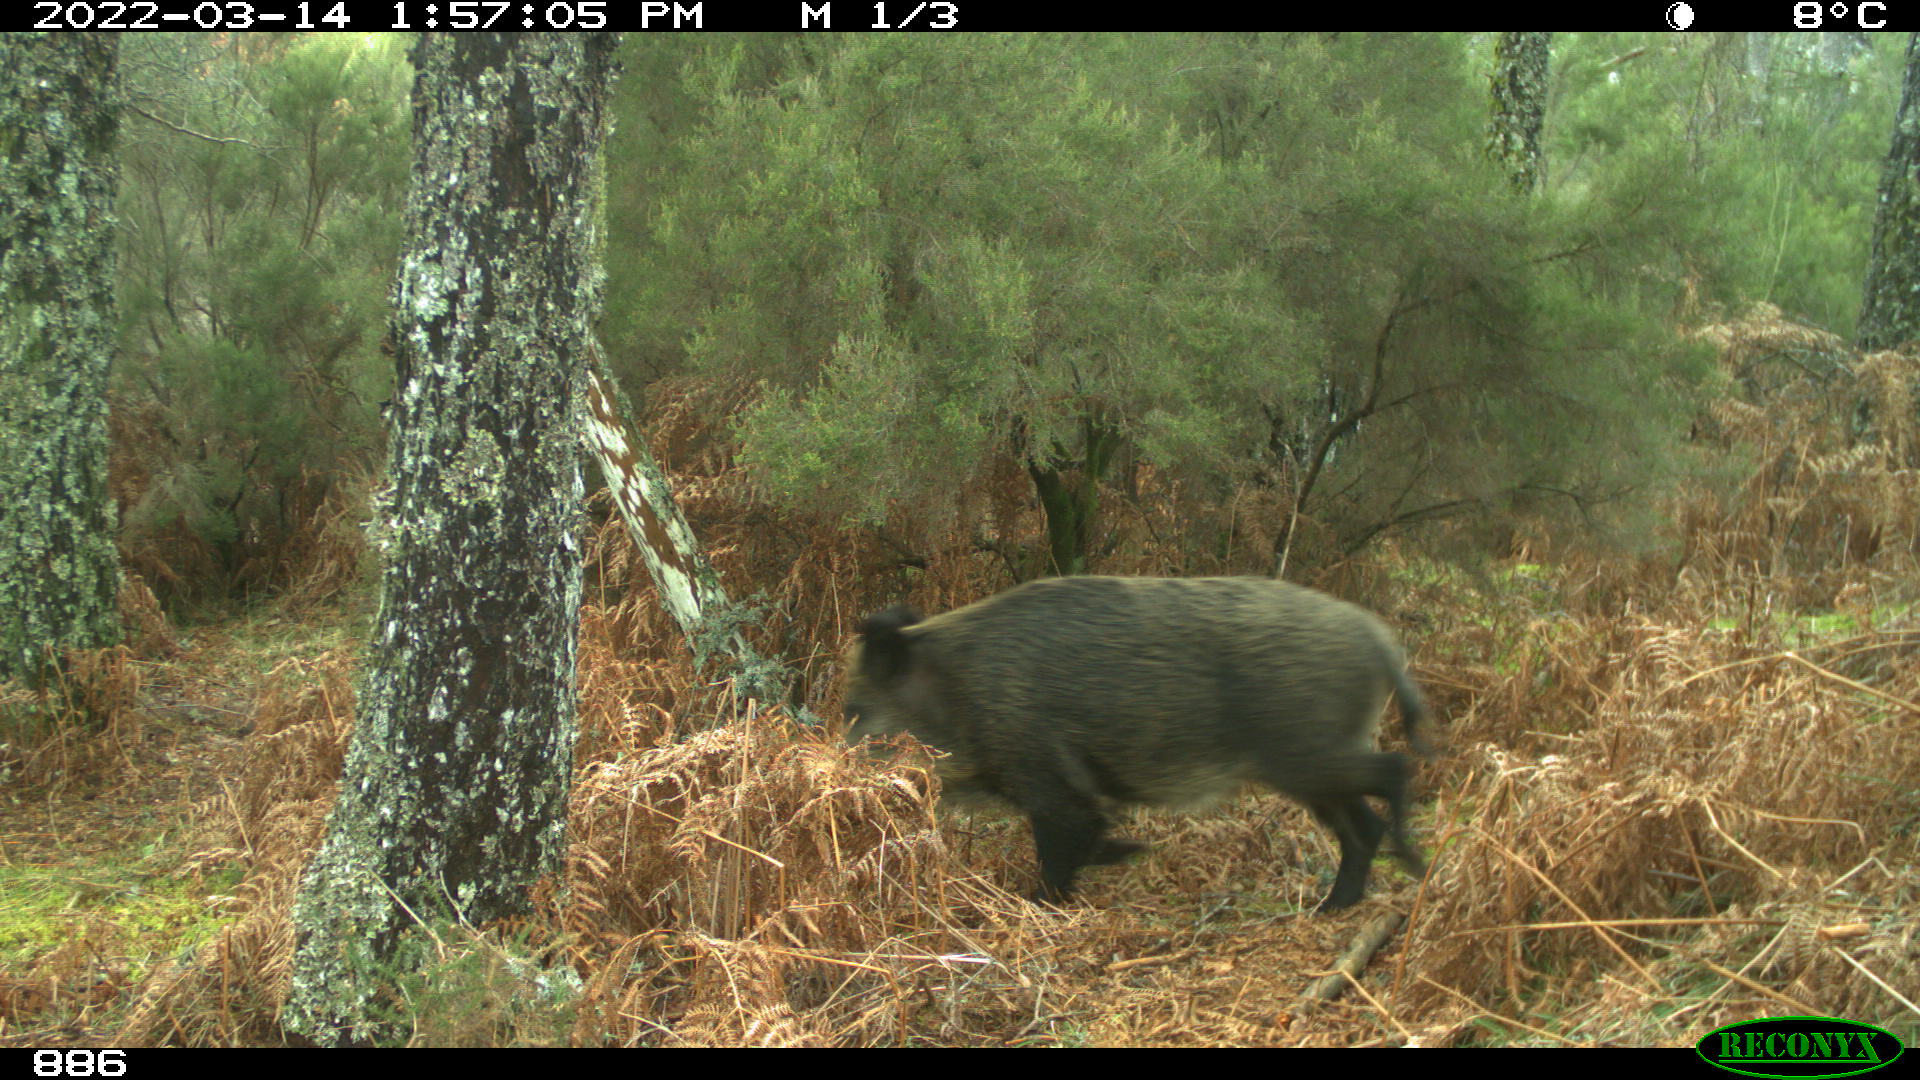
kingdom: Animalia
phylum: Chordata
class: Mammalia
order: Artiodactyla
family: Suidae
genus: Sus
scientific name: Sus scrofa
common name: Wild boar
